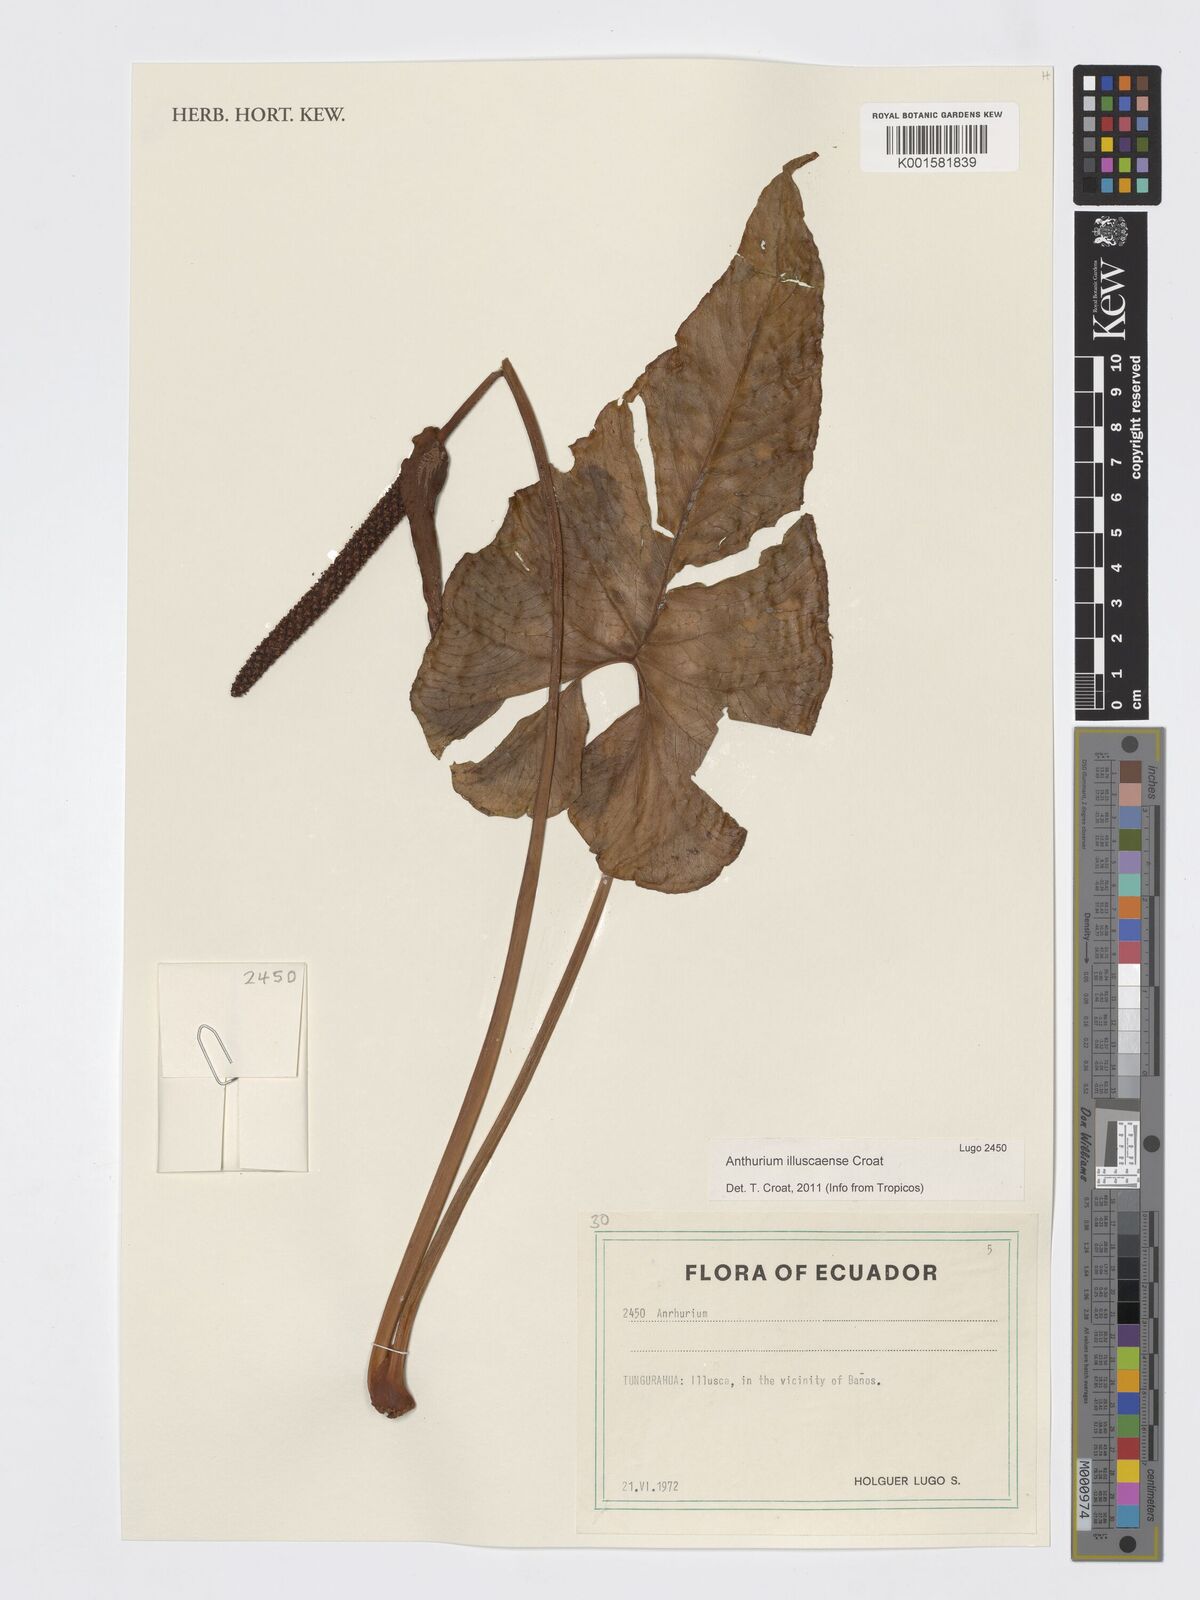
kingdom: Plantae
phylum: Tracheophyta
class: Liliopsida
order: Alismatales
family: Araceae
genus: Anthurium
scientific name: Anthurium
